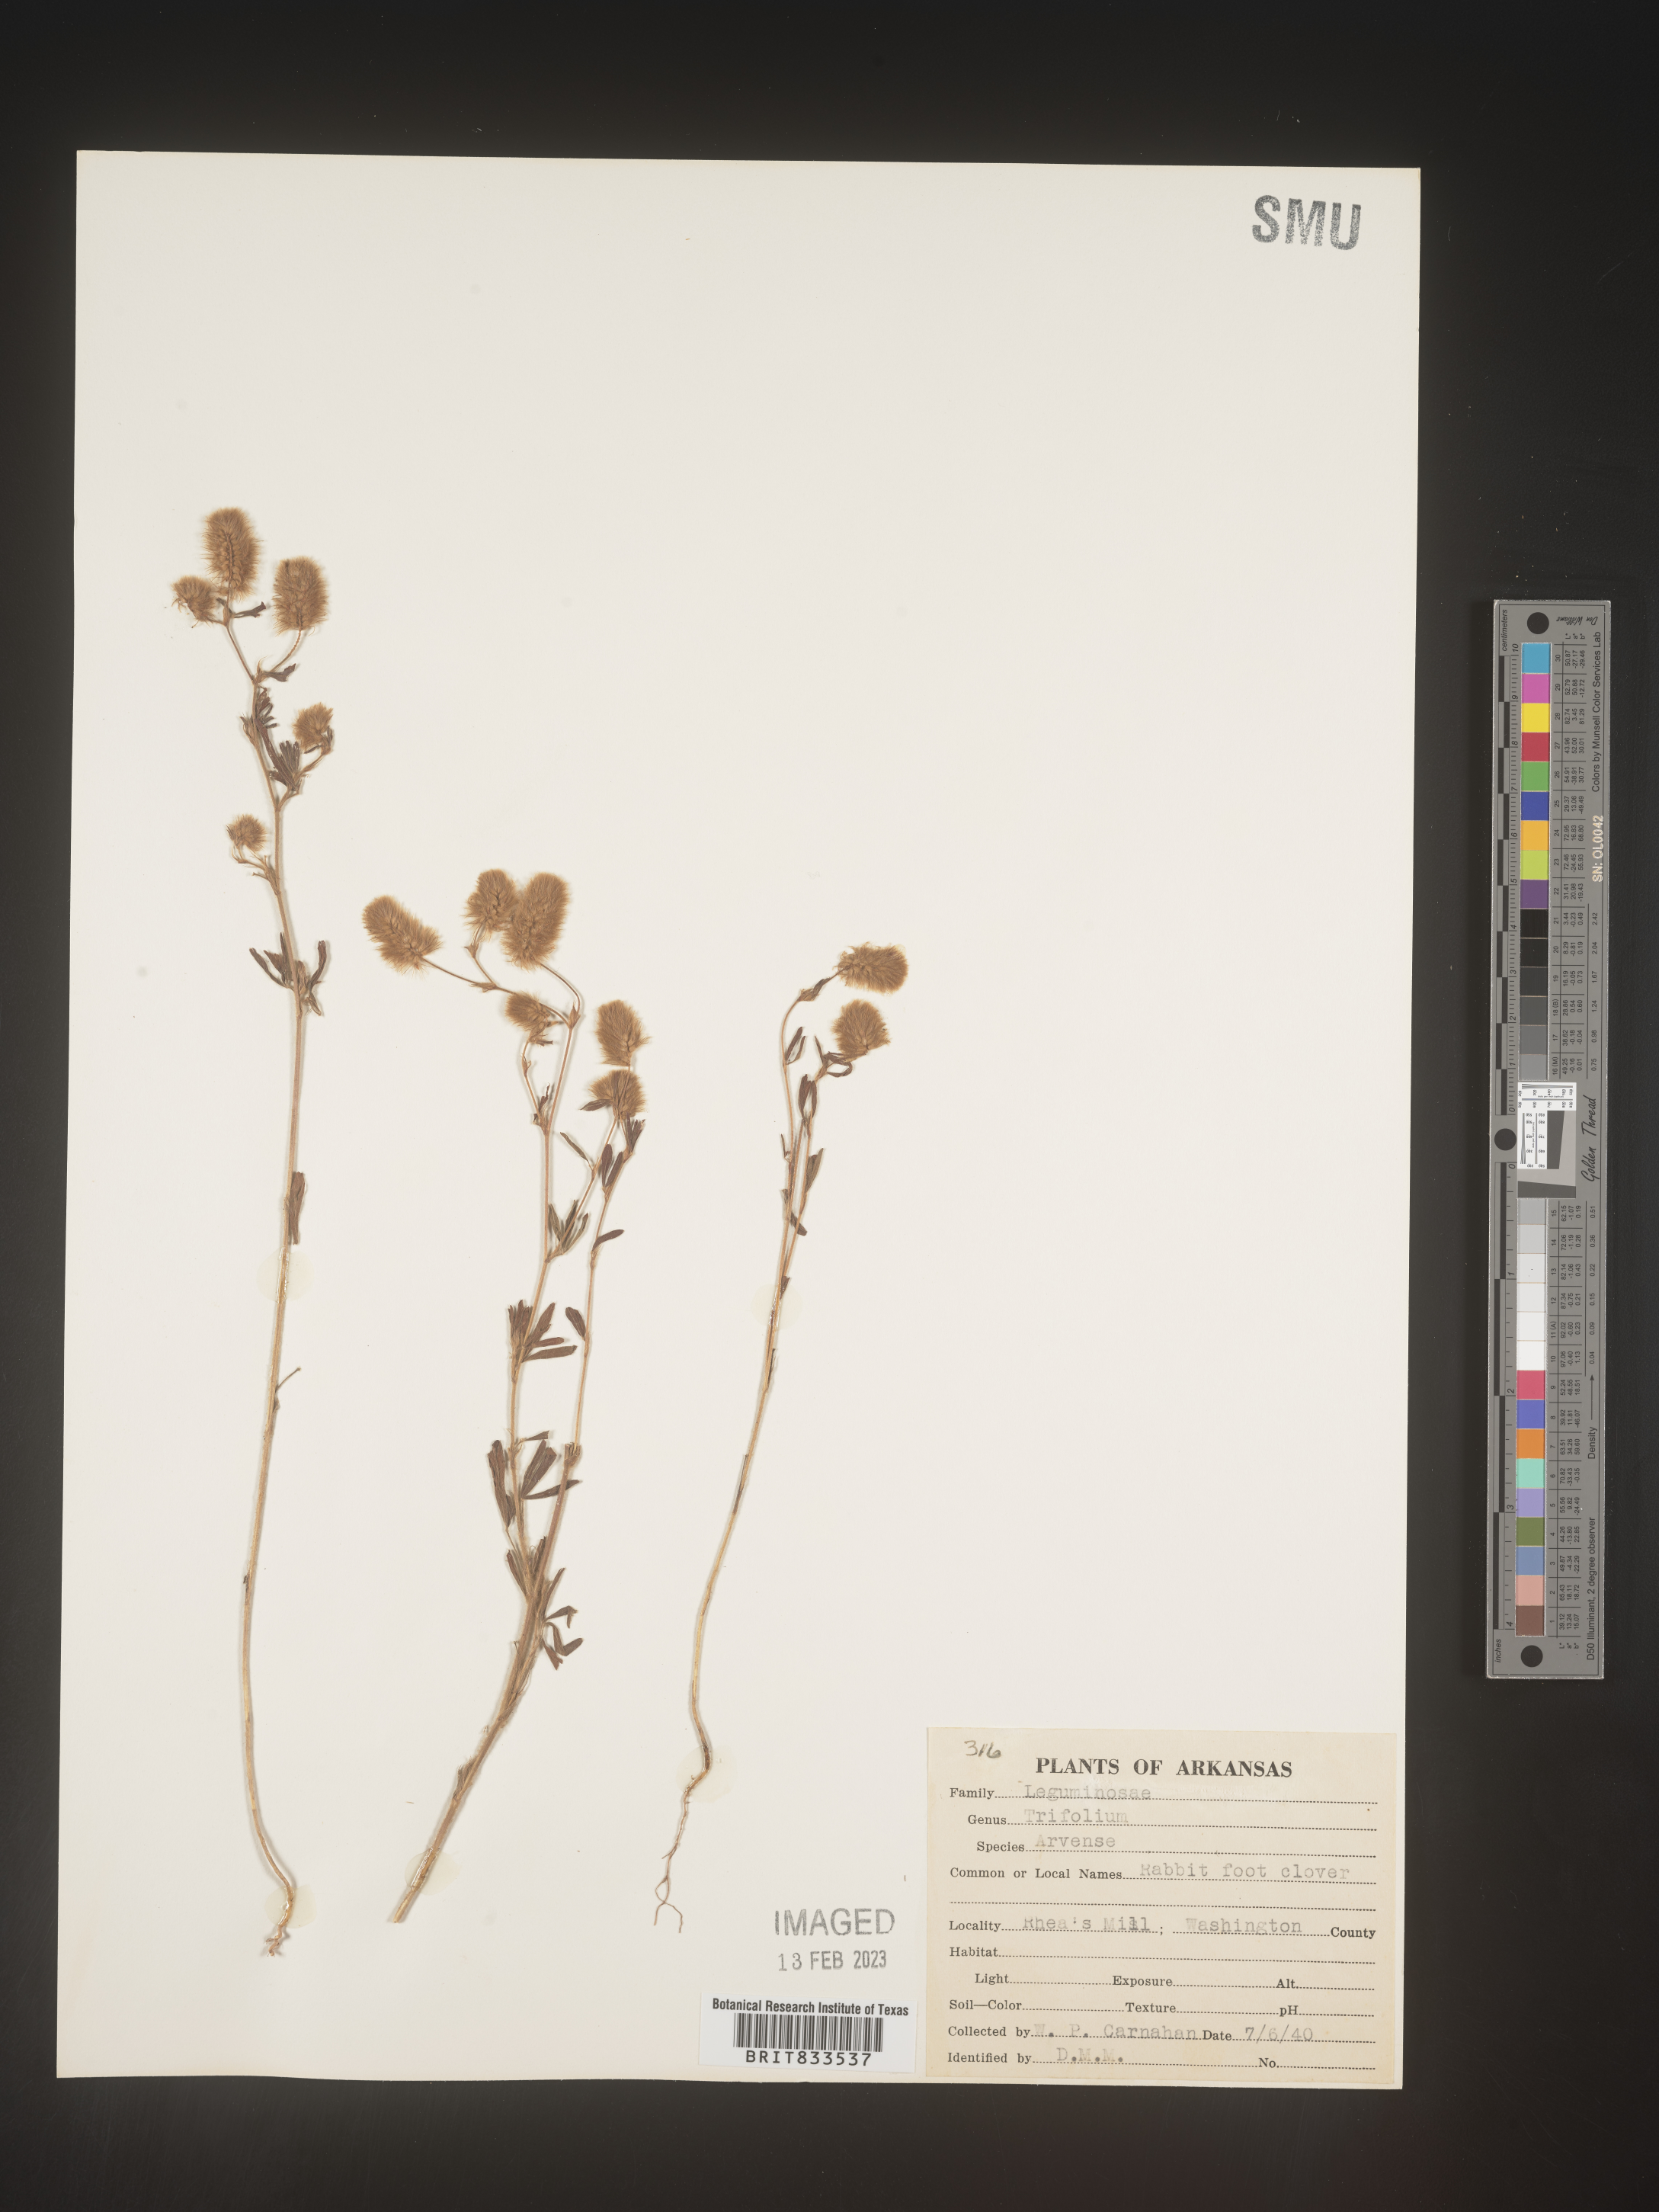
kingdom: Plantae
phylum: Tracheophyta
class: Magnoliopsida
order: Fabales
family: Fabaceae
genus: Trifolium
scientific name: Trifolium arvense
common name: Hare's-foot clover
